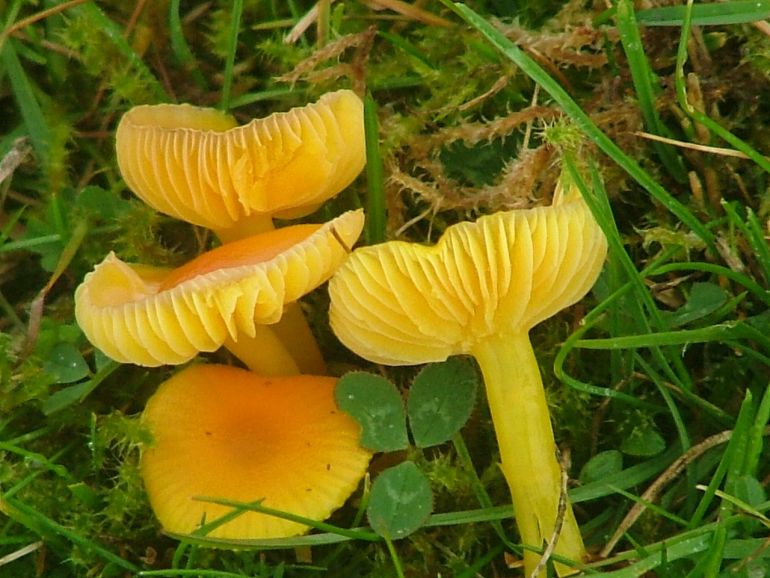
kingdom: Fungi
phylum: Basidiomycota
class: Agaricomycetes
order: Agaricales
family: Hygrophoraceae
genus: Hygrocybe
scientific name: Hygrocybe chlorophana
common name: gul vokshat
